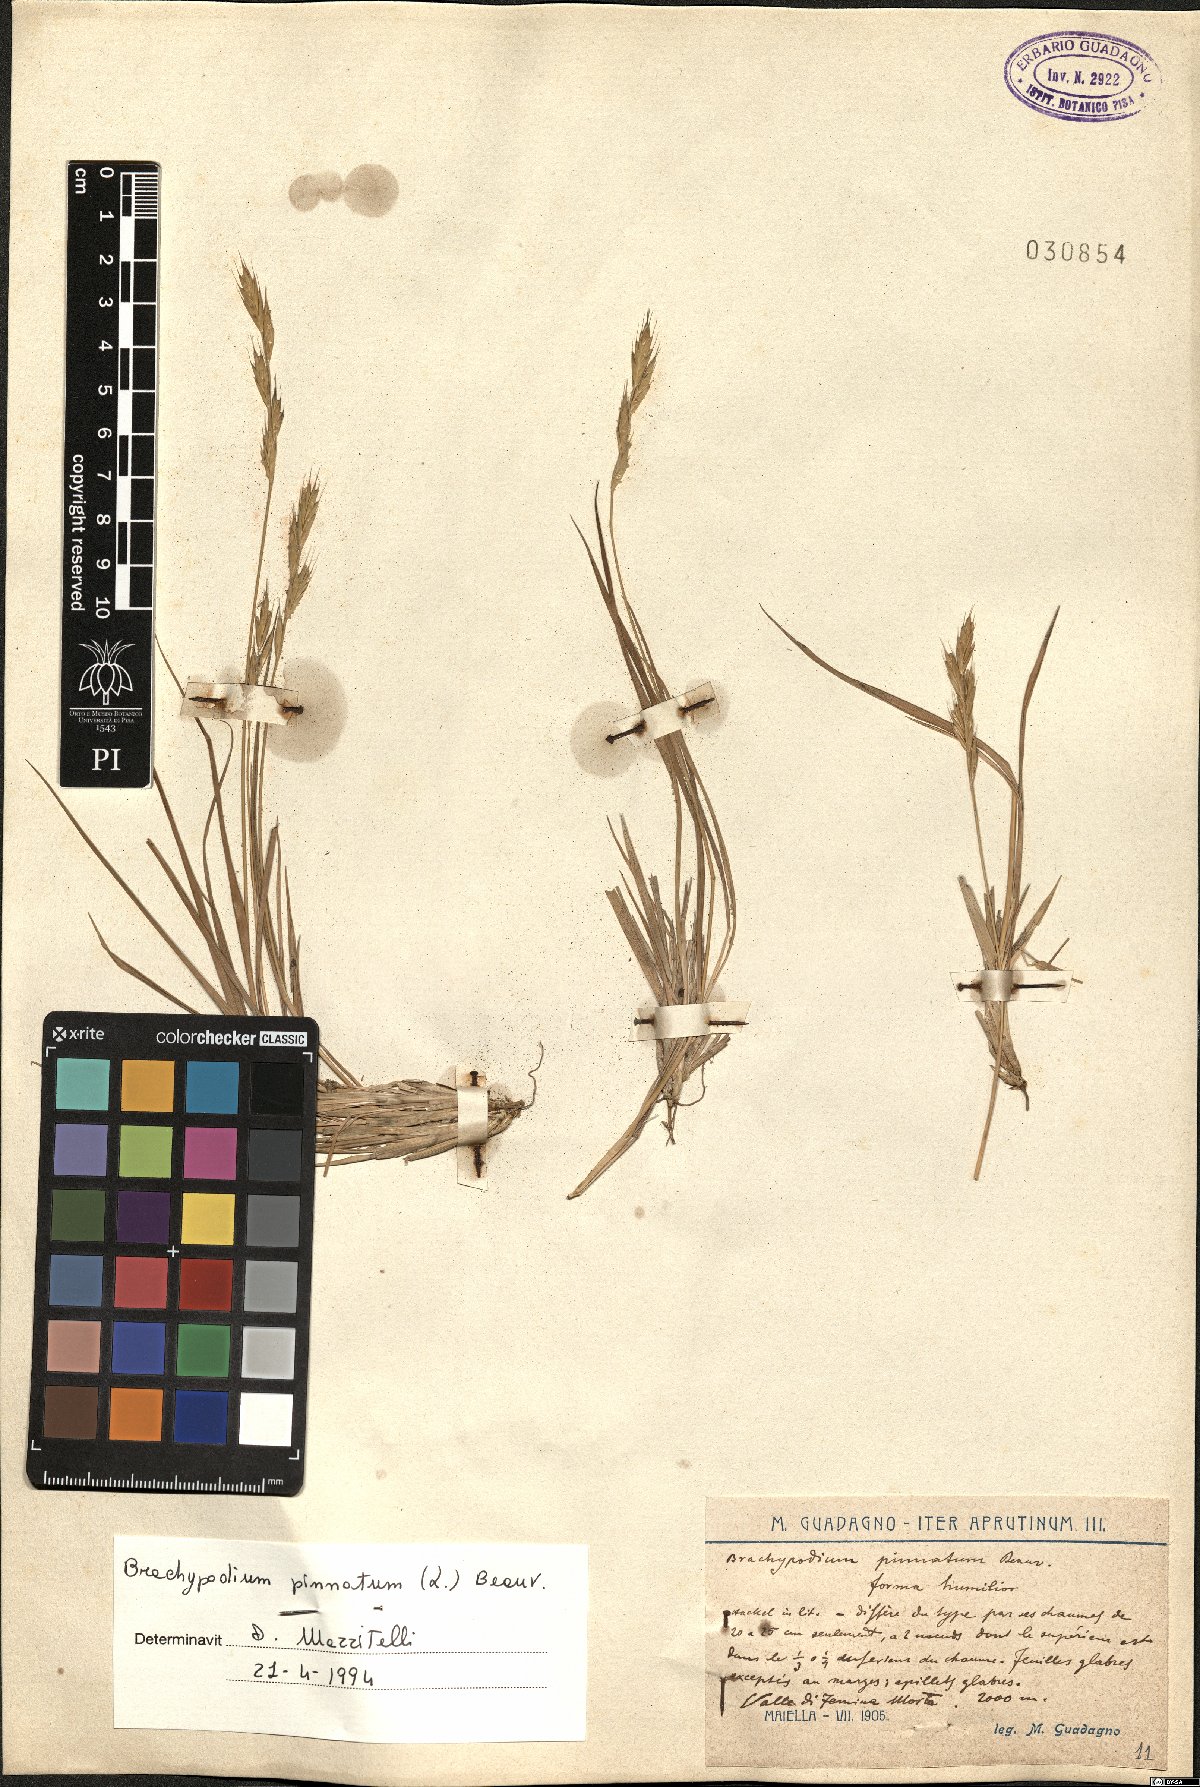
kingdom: Plantae
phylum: Tracheophyta
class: Liliopsida
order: Poales
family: Poaceae
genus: Brachypodium
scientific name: Brachypodium pinnatum
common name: Tor grass
